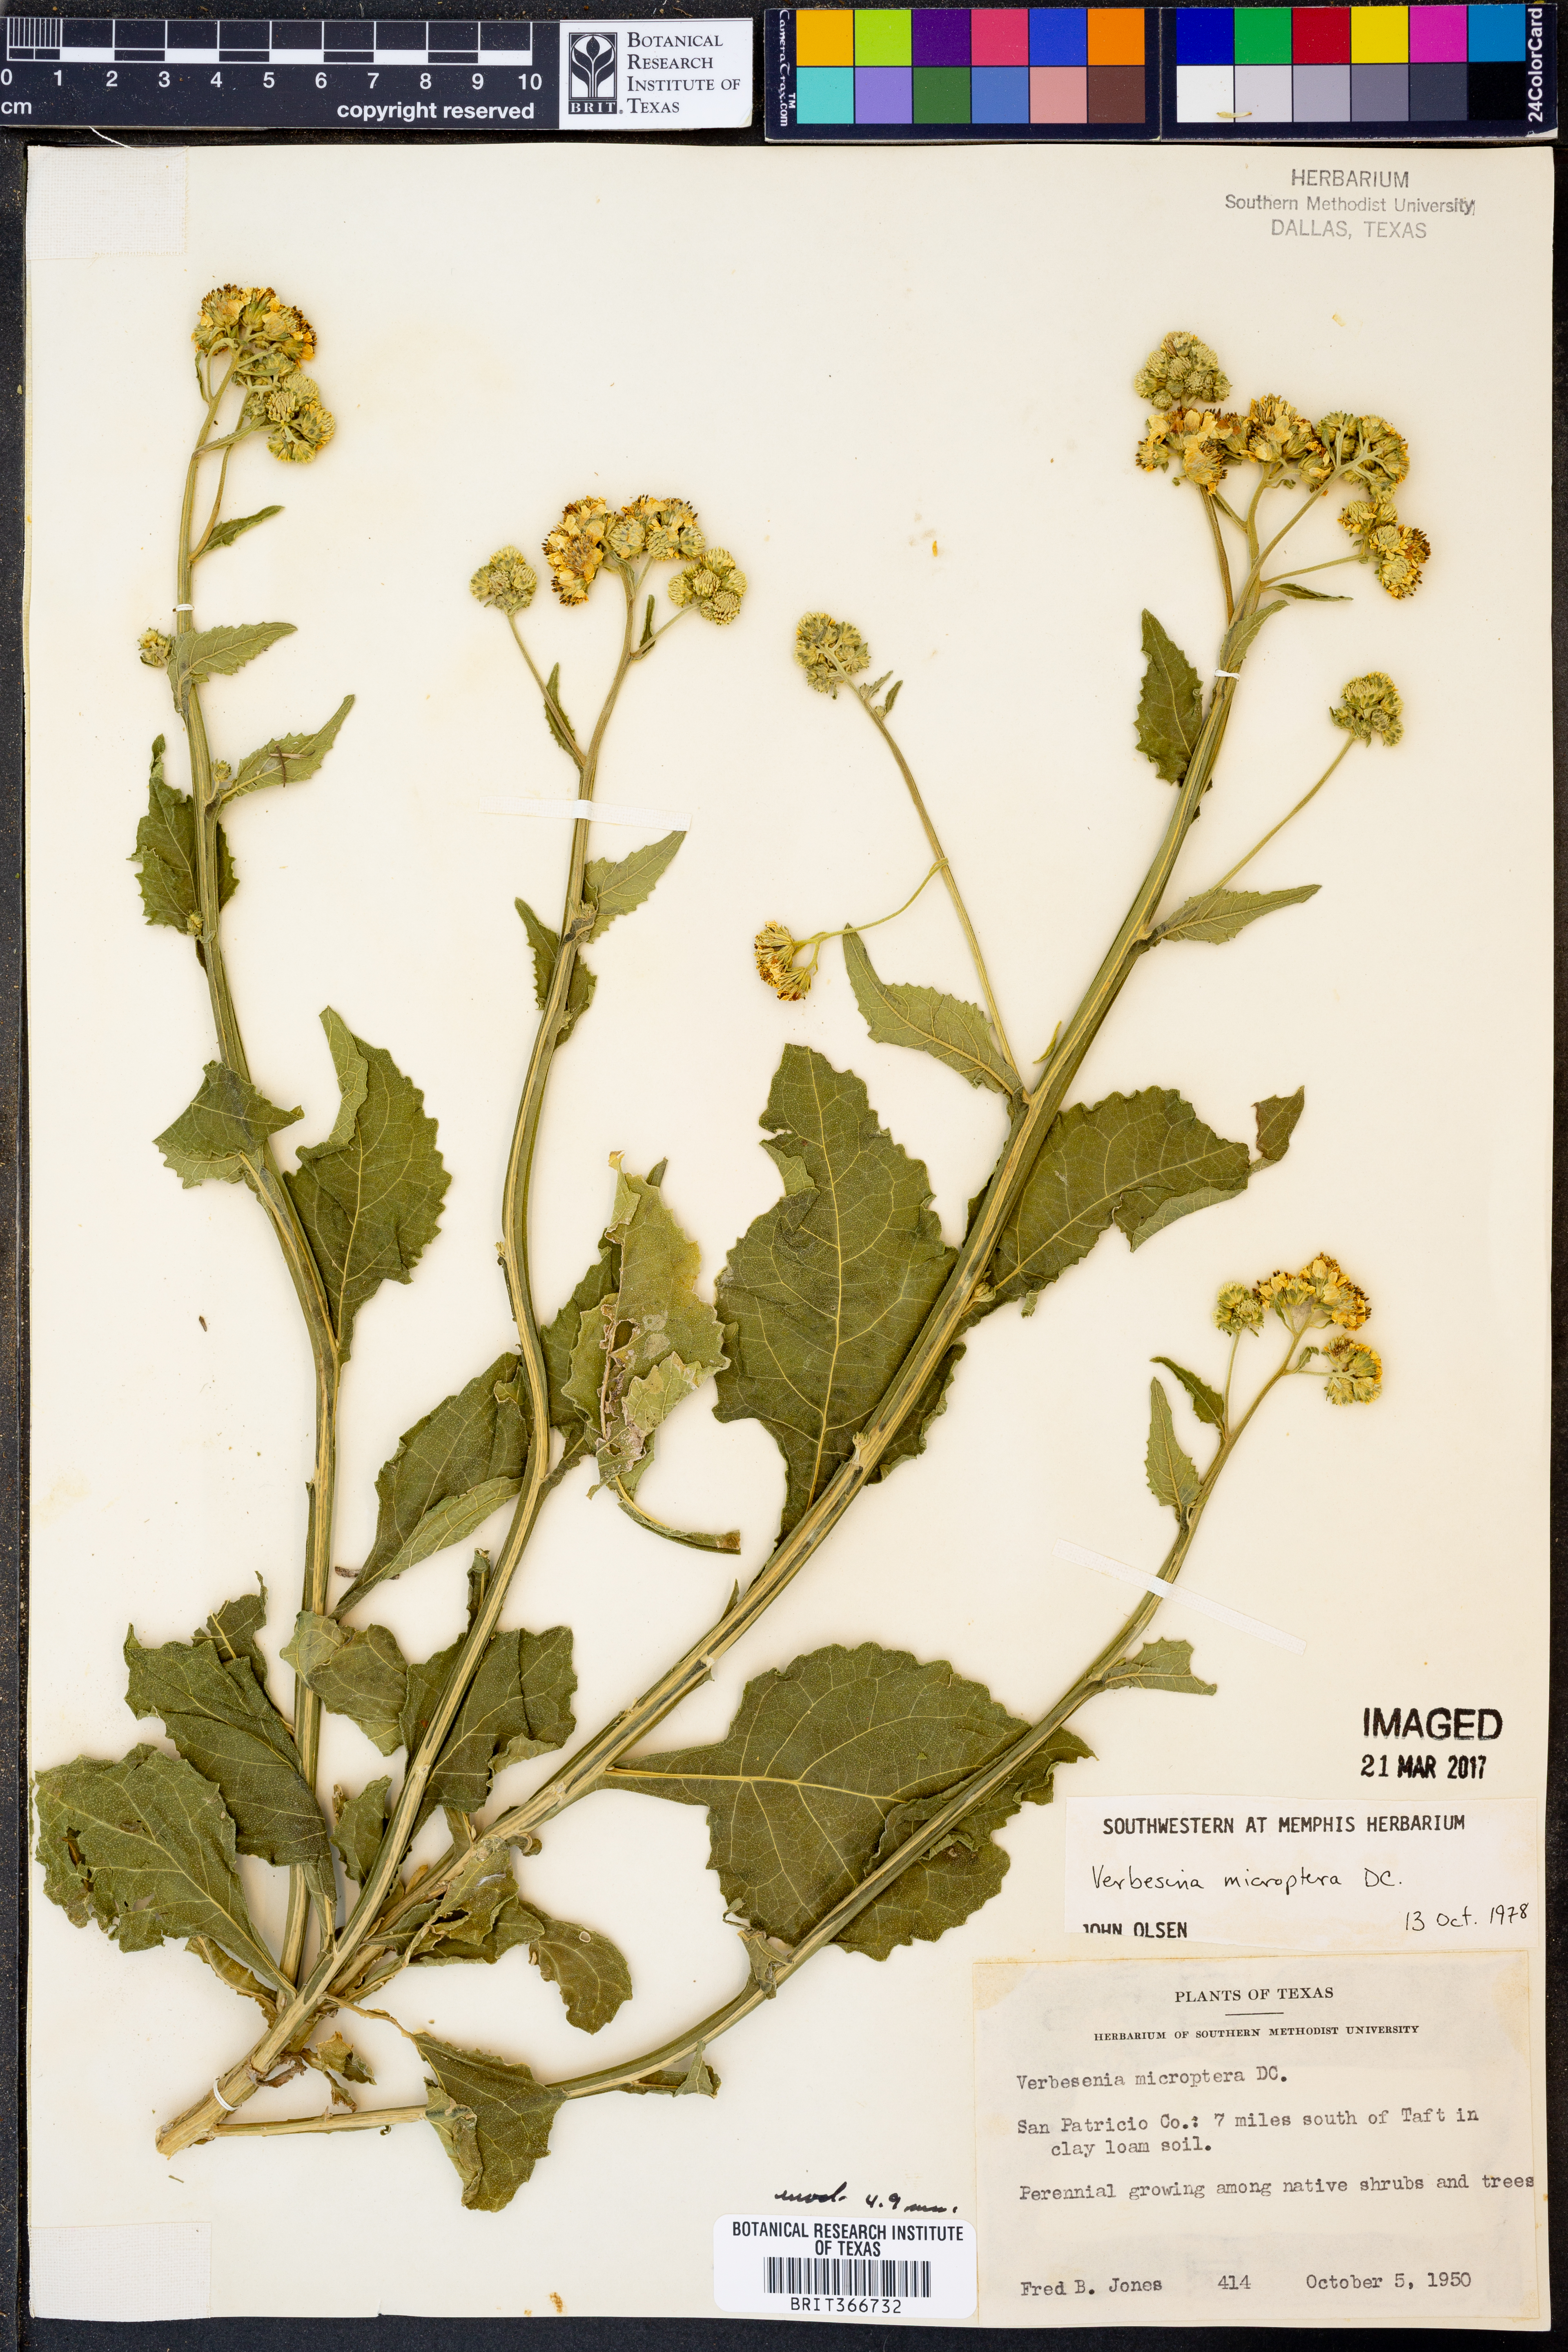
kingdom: Plantae
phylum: Tracheophyta
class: Magnoliopsida
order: Asterales
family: Asteraceae
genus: Verbesina
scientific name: Verbesina encelioides
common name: Golden crownbeard
